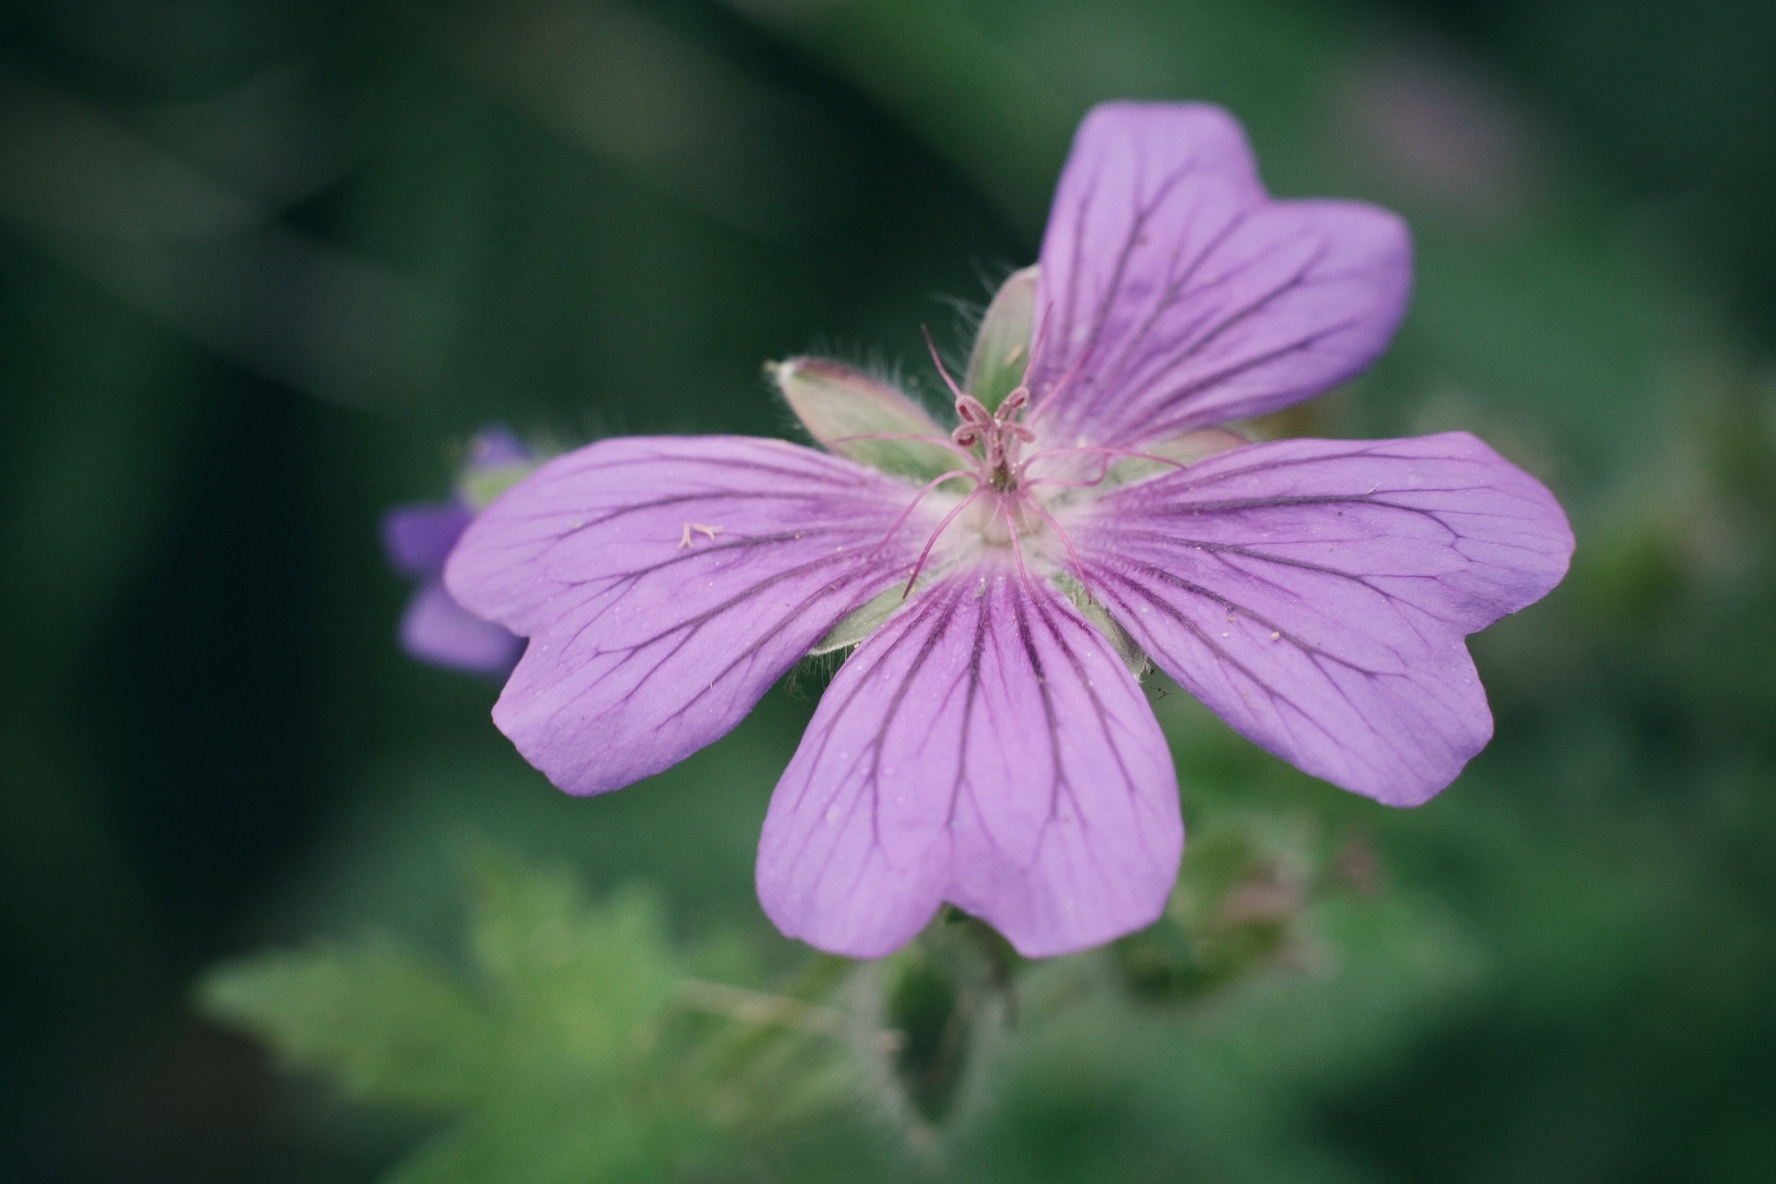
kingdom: Plantae
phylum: Tracheophyta
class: Magnoliopsida
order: Geraniales
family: Geraniaceae
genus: Geranium
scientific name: Geranium
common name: Storkenæbslægten
